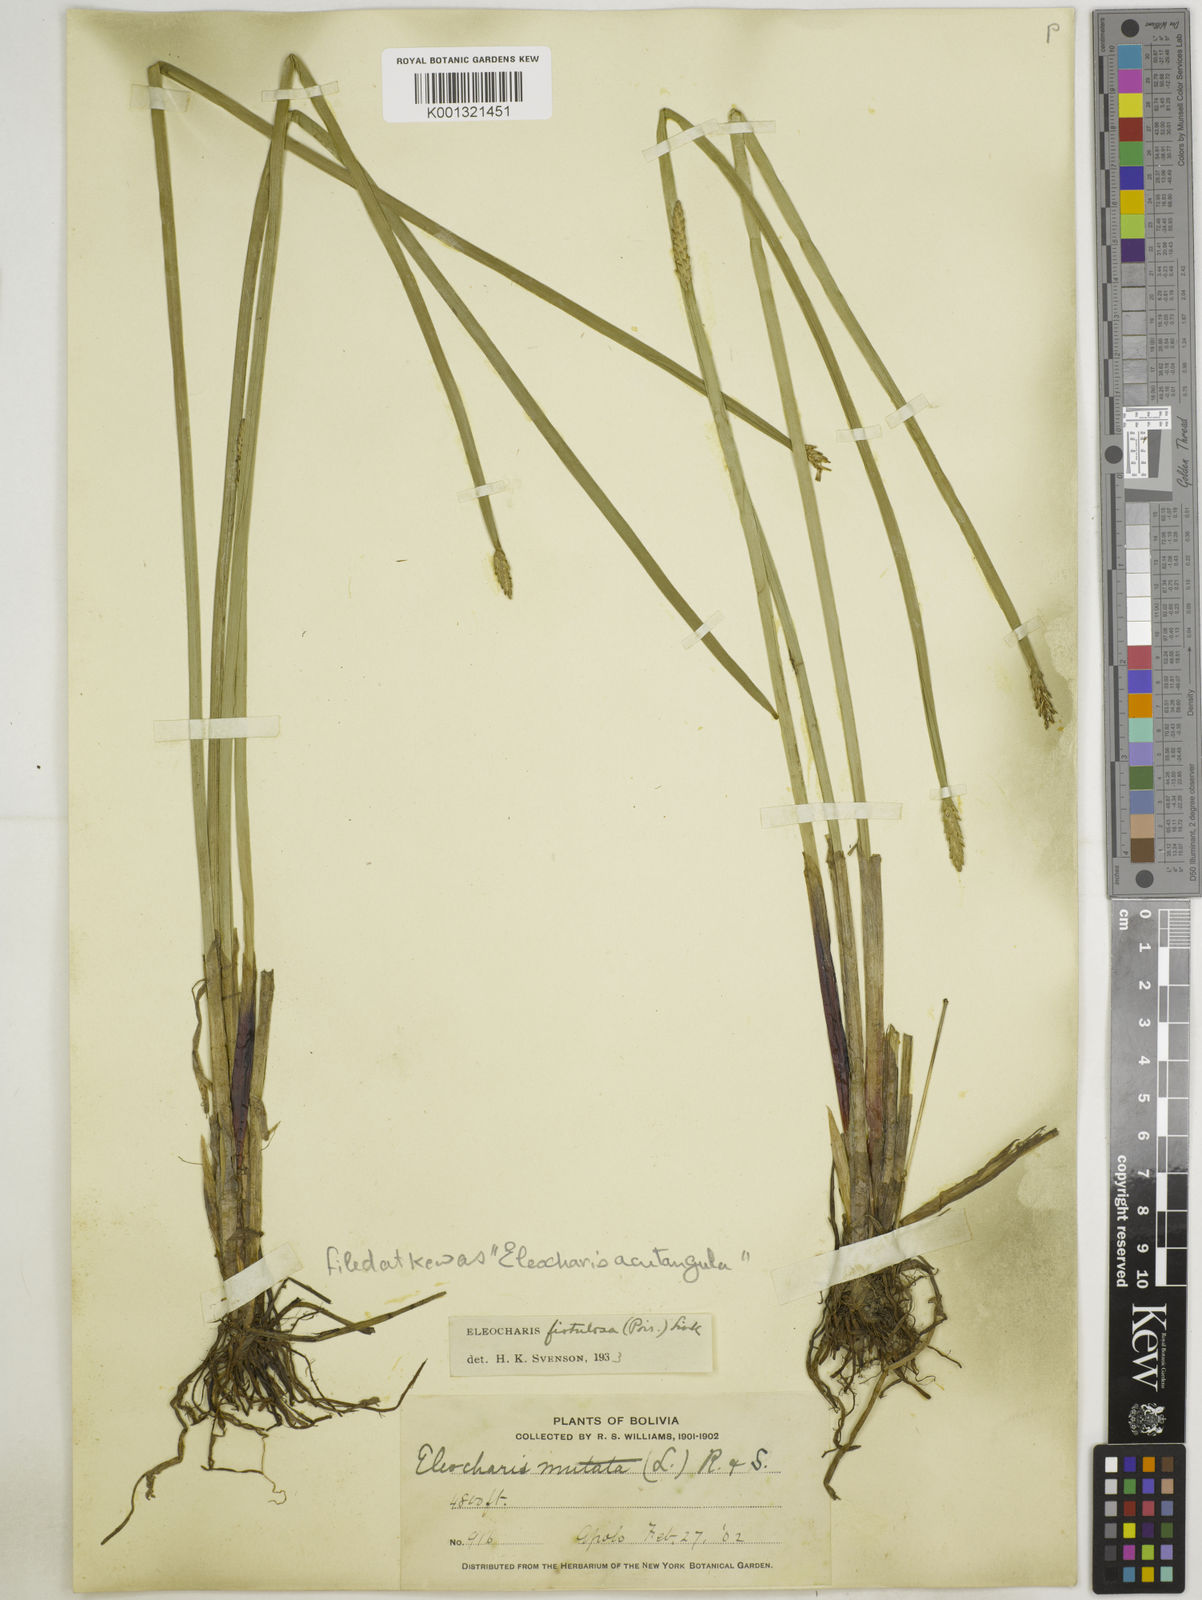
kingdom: Plantae
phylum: Tracheophyta
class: Liliopsida
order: Poales
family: Cyperaceae
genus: Eleocharis
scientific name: Eleocharis acutangula
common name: Acute spikerush
